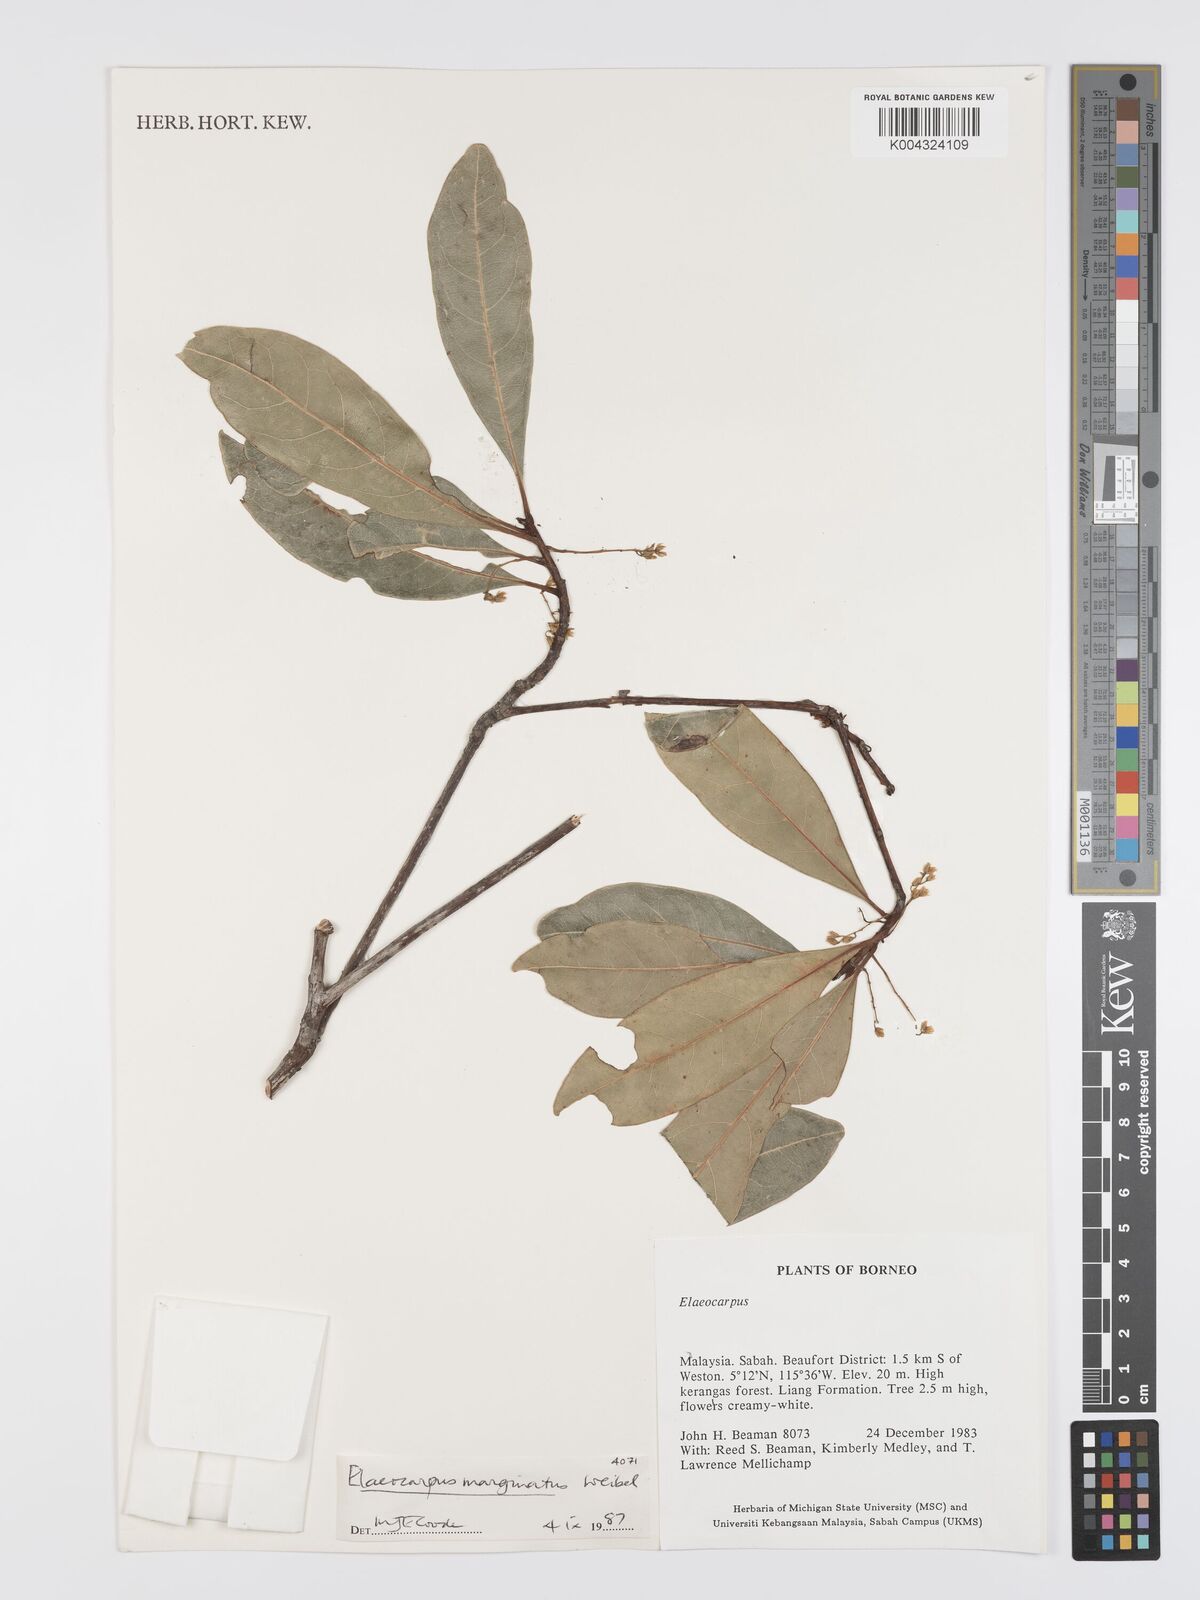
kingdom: Plantae
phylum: Tracheophyta
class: Magnoliopsida
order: Oxalidales
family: Elaeocarpaceae
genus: Elaeocarpus
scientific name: Elaeocarpus marginatus
